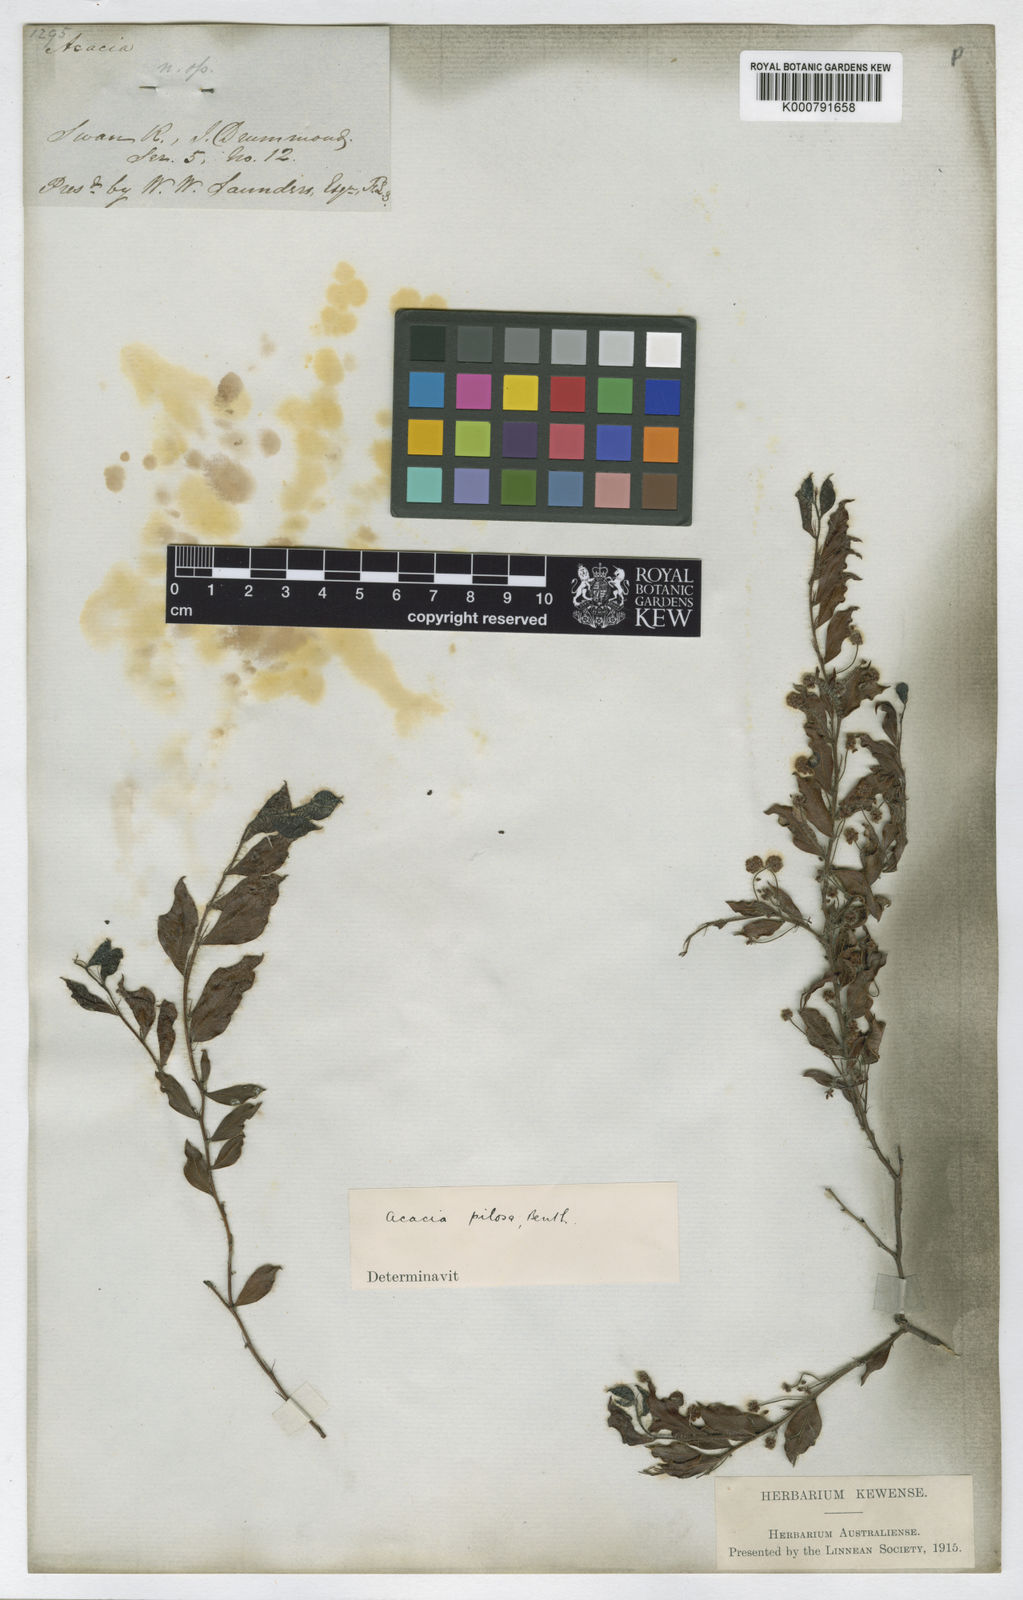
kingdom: Plantae
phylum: Tracheophyta
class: Magnoliopsida
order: Fabales
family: Fabaceae
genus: Acacia
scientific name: Acacia crispula
